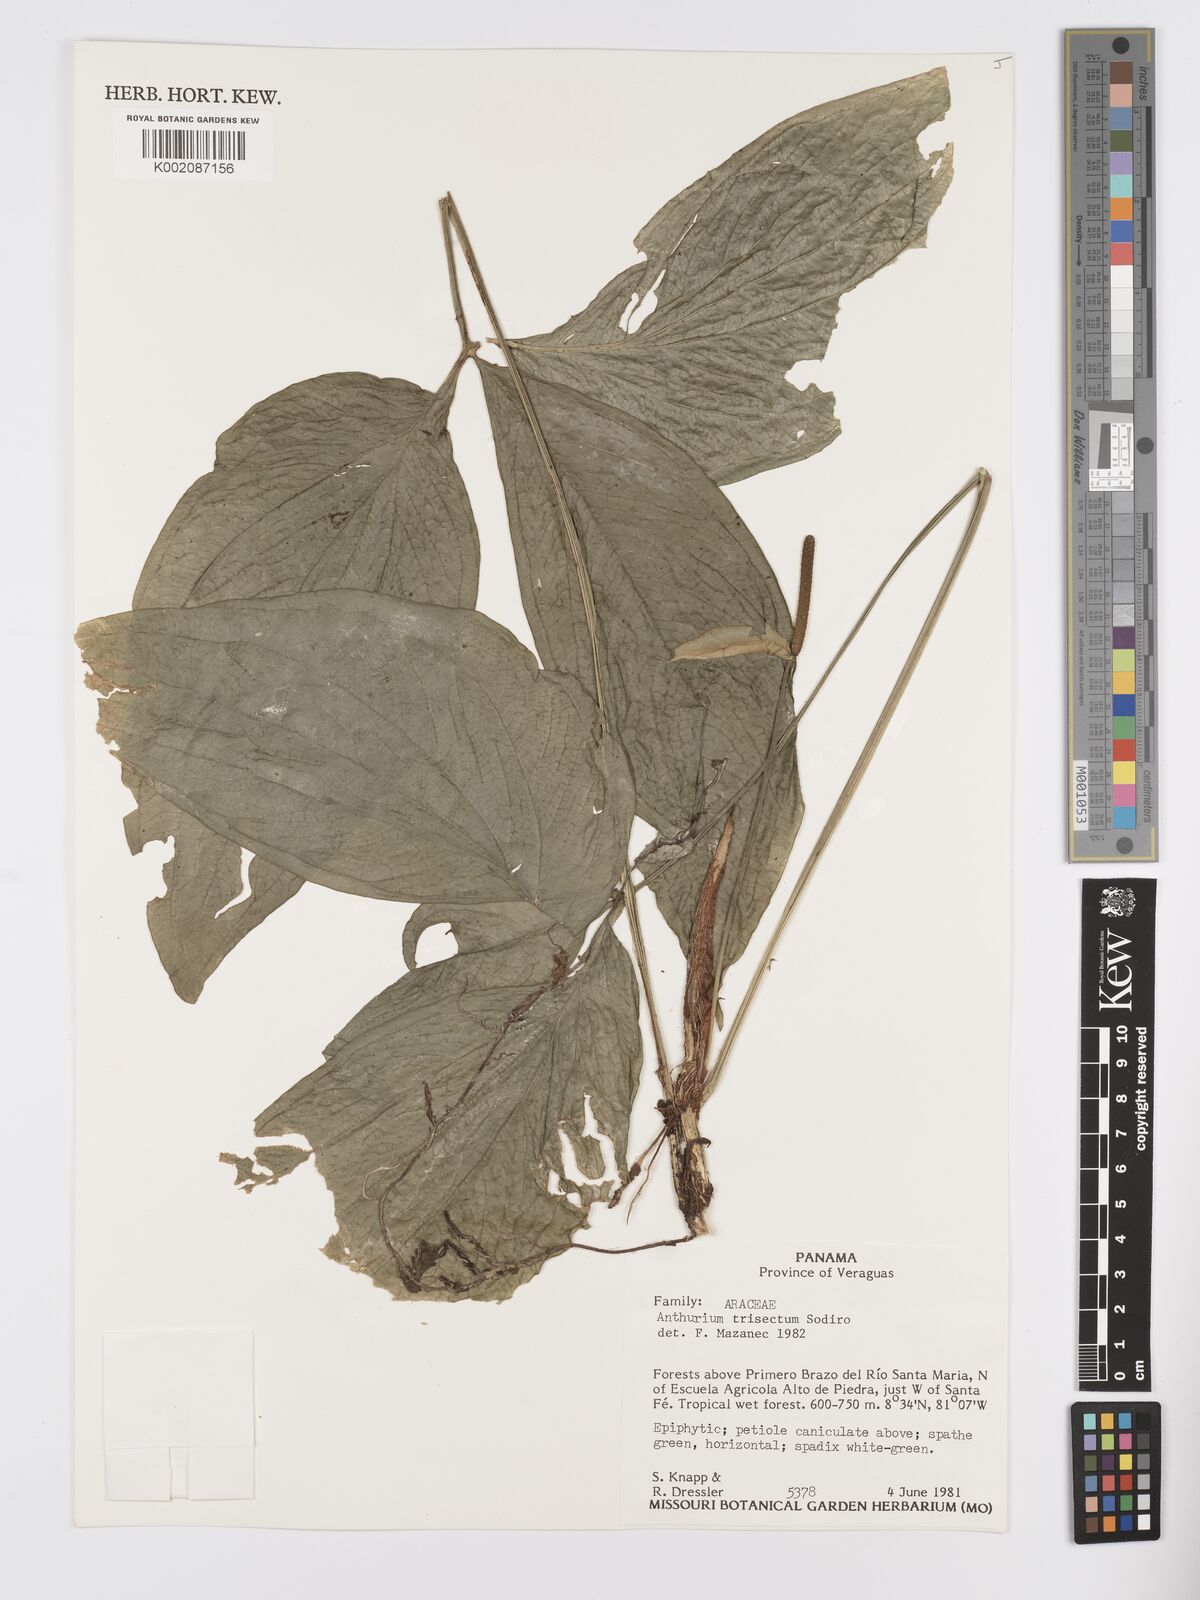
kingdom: Plantae
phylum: Tracheophyta
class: Liliopsida
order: Alismatales
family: Araceae
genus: Anthurium
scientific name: Anthurium trisectum
